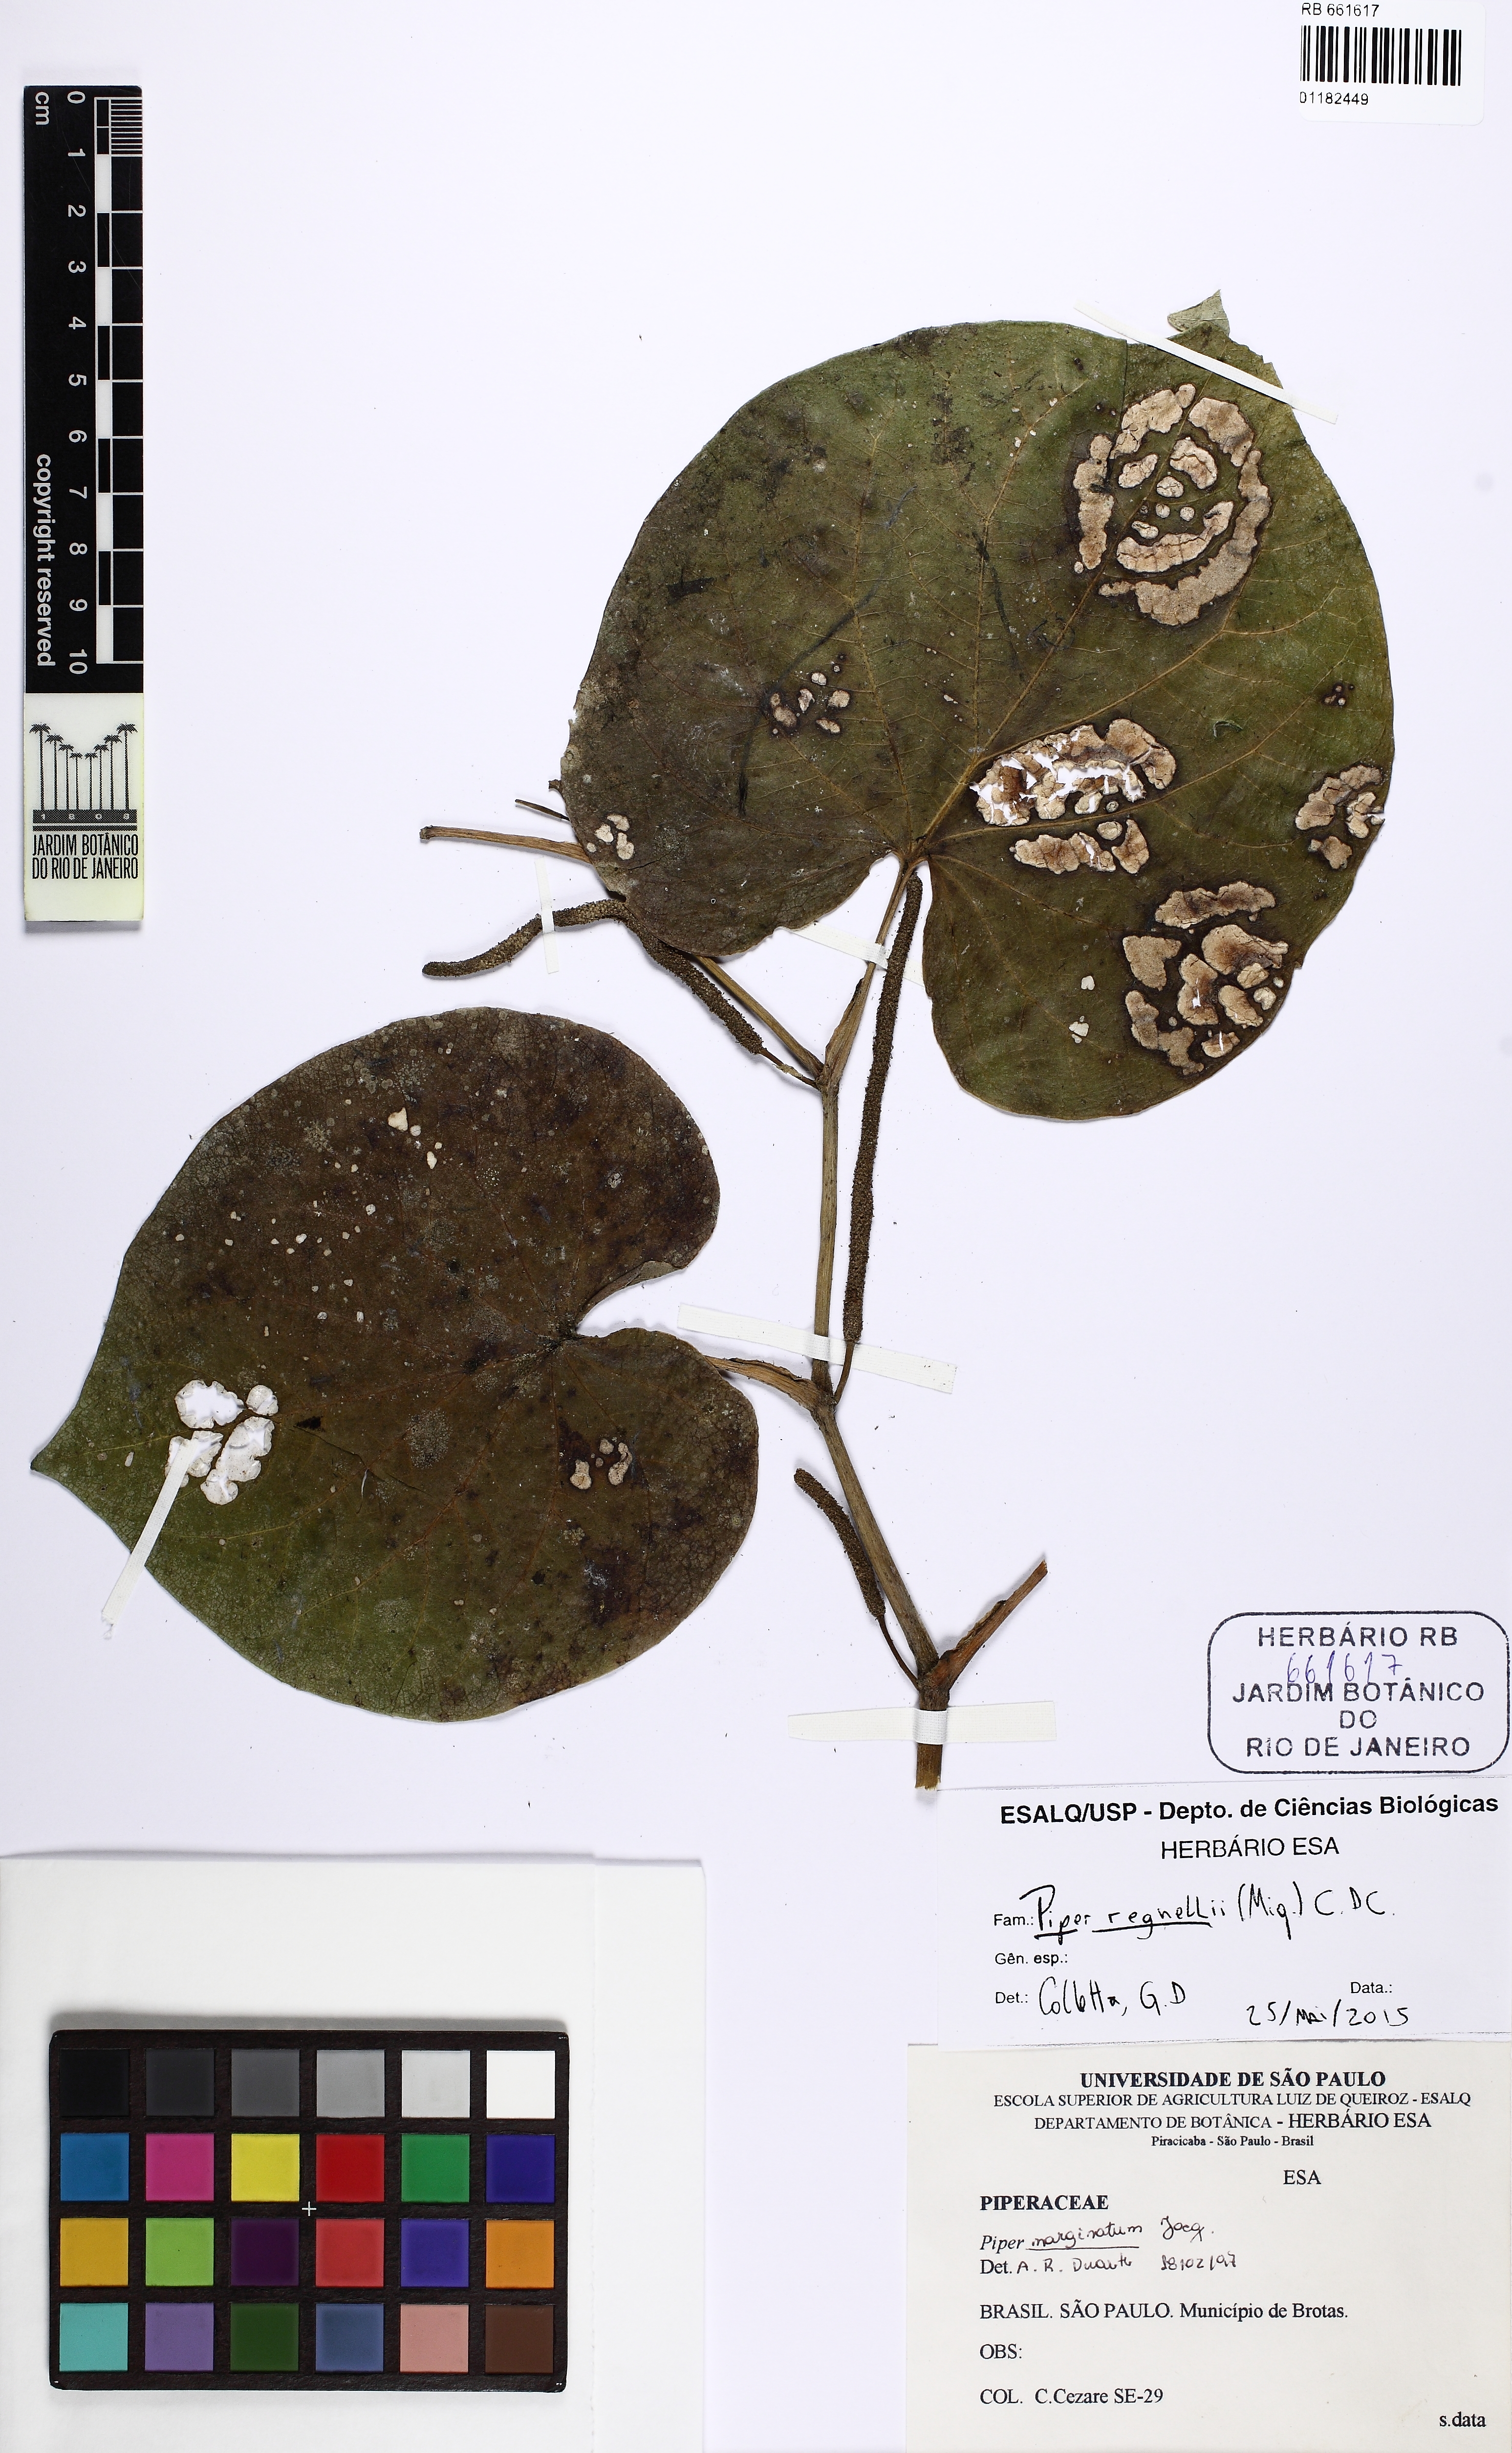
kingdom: Plantae
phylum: Tracheophyta
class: Magnoliopsida
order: Piperales
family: Piperaceae
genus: Piper
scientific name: Piper regnellii
